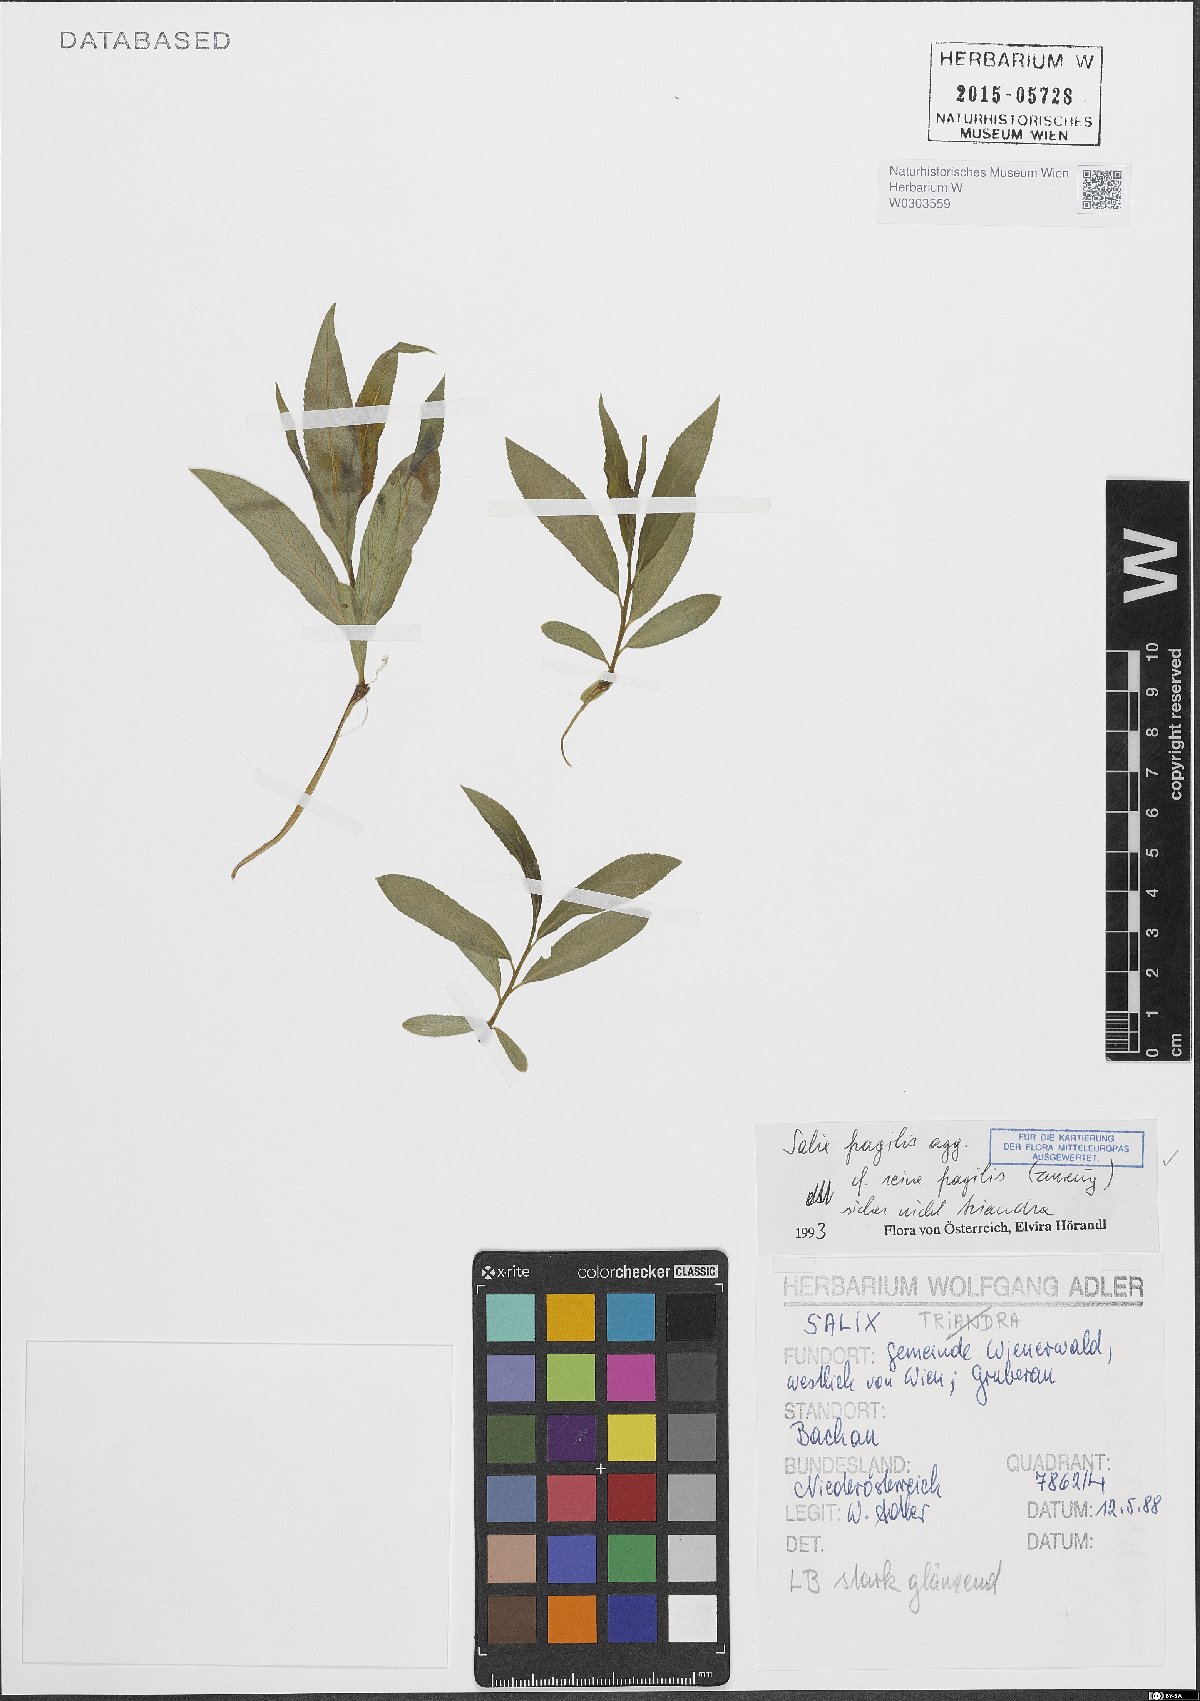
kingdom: Plantae
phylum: Tracheophyta
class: Magnoliopsida
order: Malpighiales
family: Salicaceae
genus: Salix
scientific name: Salix fragilis
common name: Crack willow
